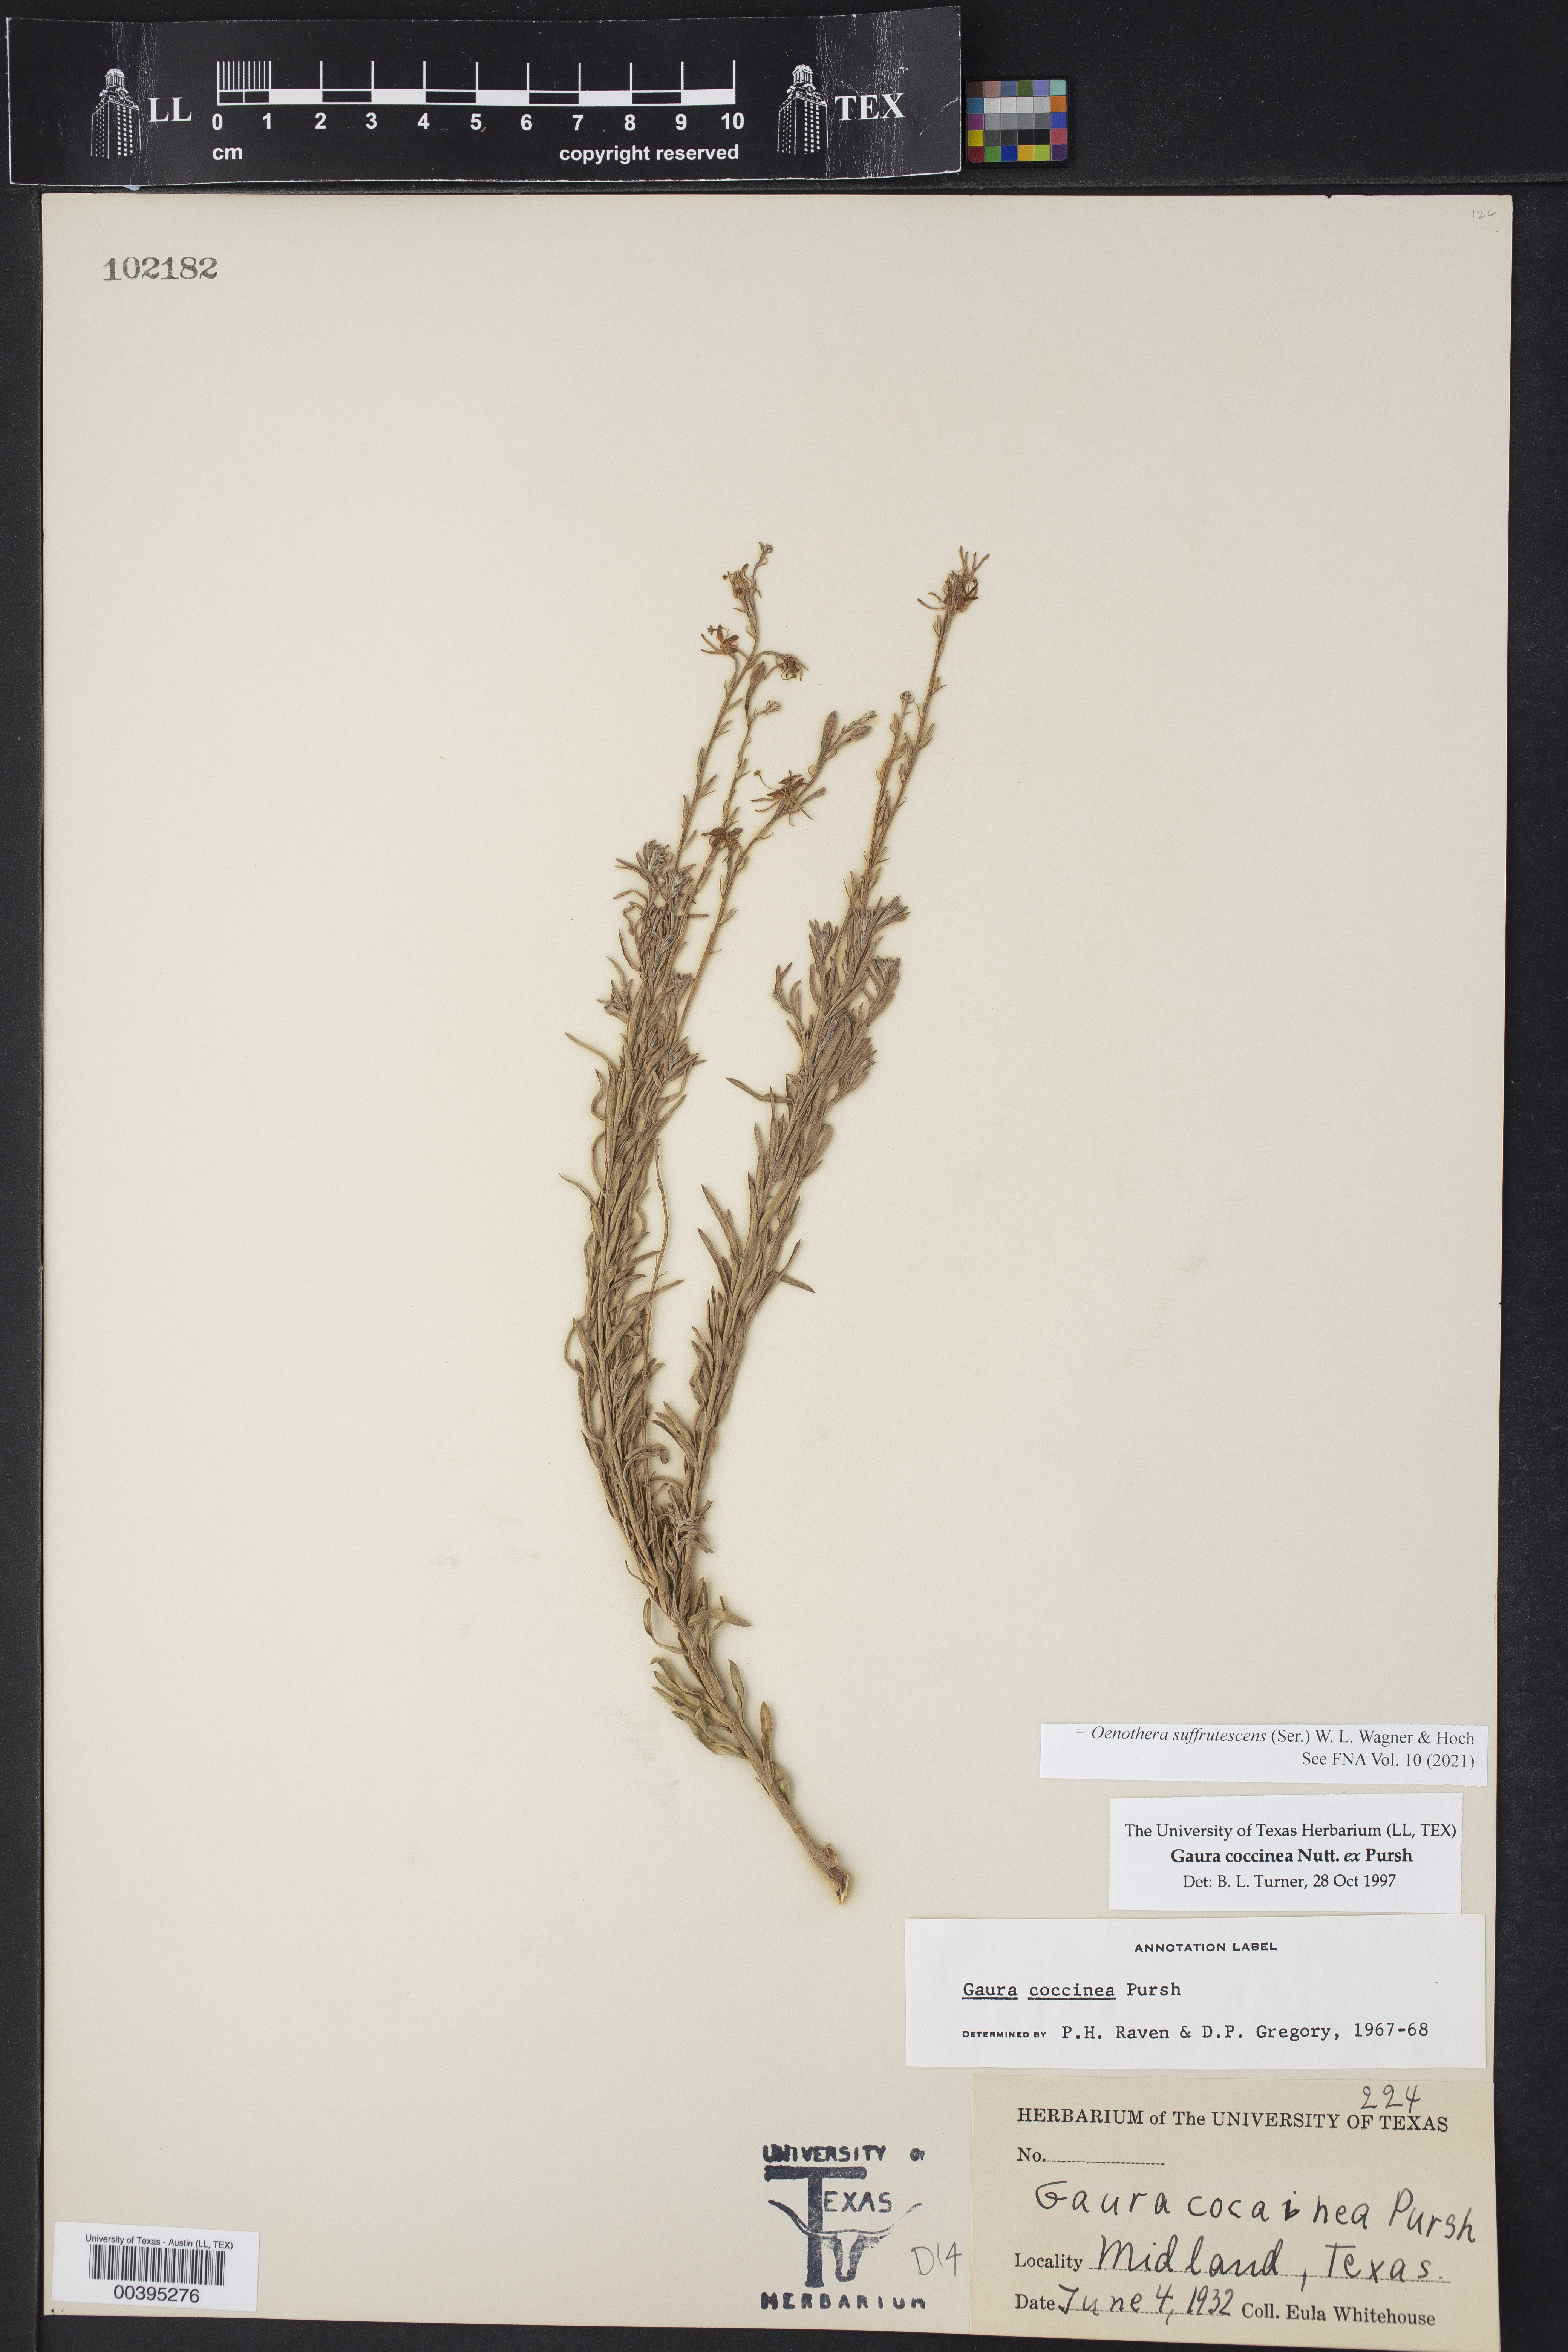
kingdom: Plantae
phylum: Tracheophyta
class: Magnoliopsida
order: Myrtales
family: Onagraceae
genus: Oenothera
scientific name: Oenothera suffrutescens
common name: Scarlet beeblossom
